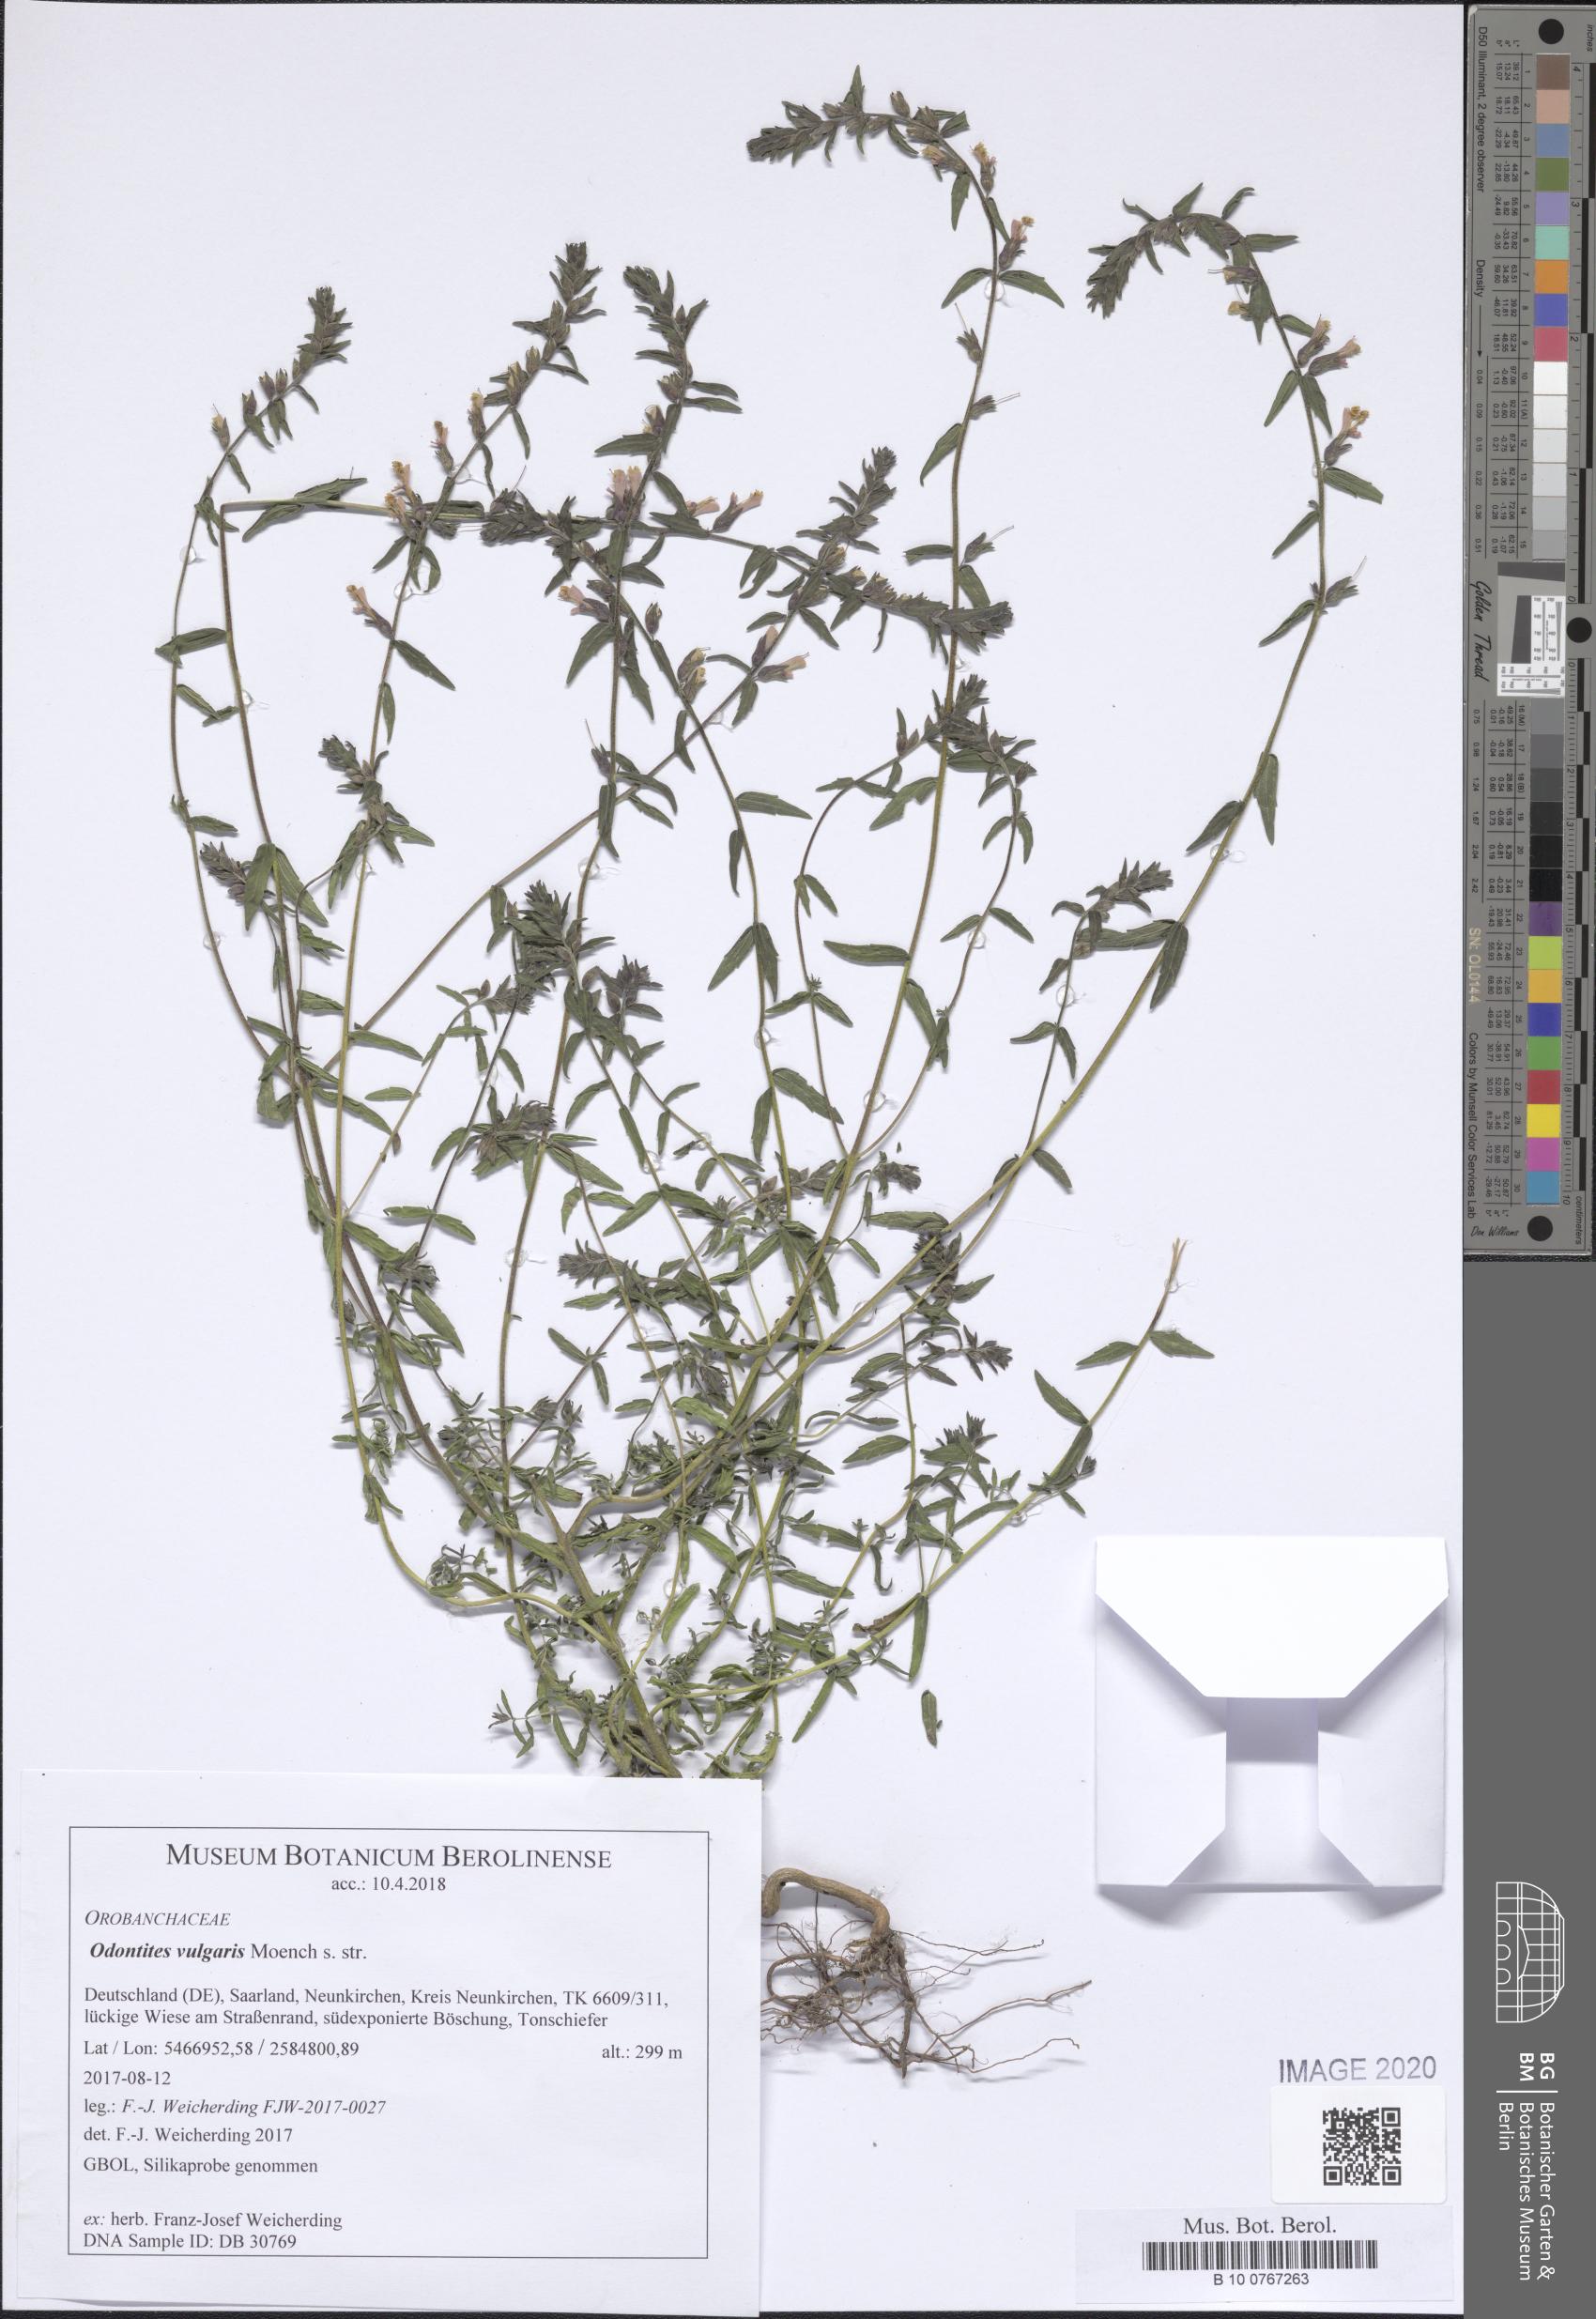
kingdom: Plantae
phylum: Tracheophyta
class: Magnoliopsida
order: Lamiales
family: Orobanchaceae
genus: Odontites
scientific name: Odontites vulgaris
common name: Broomrape
